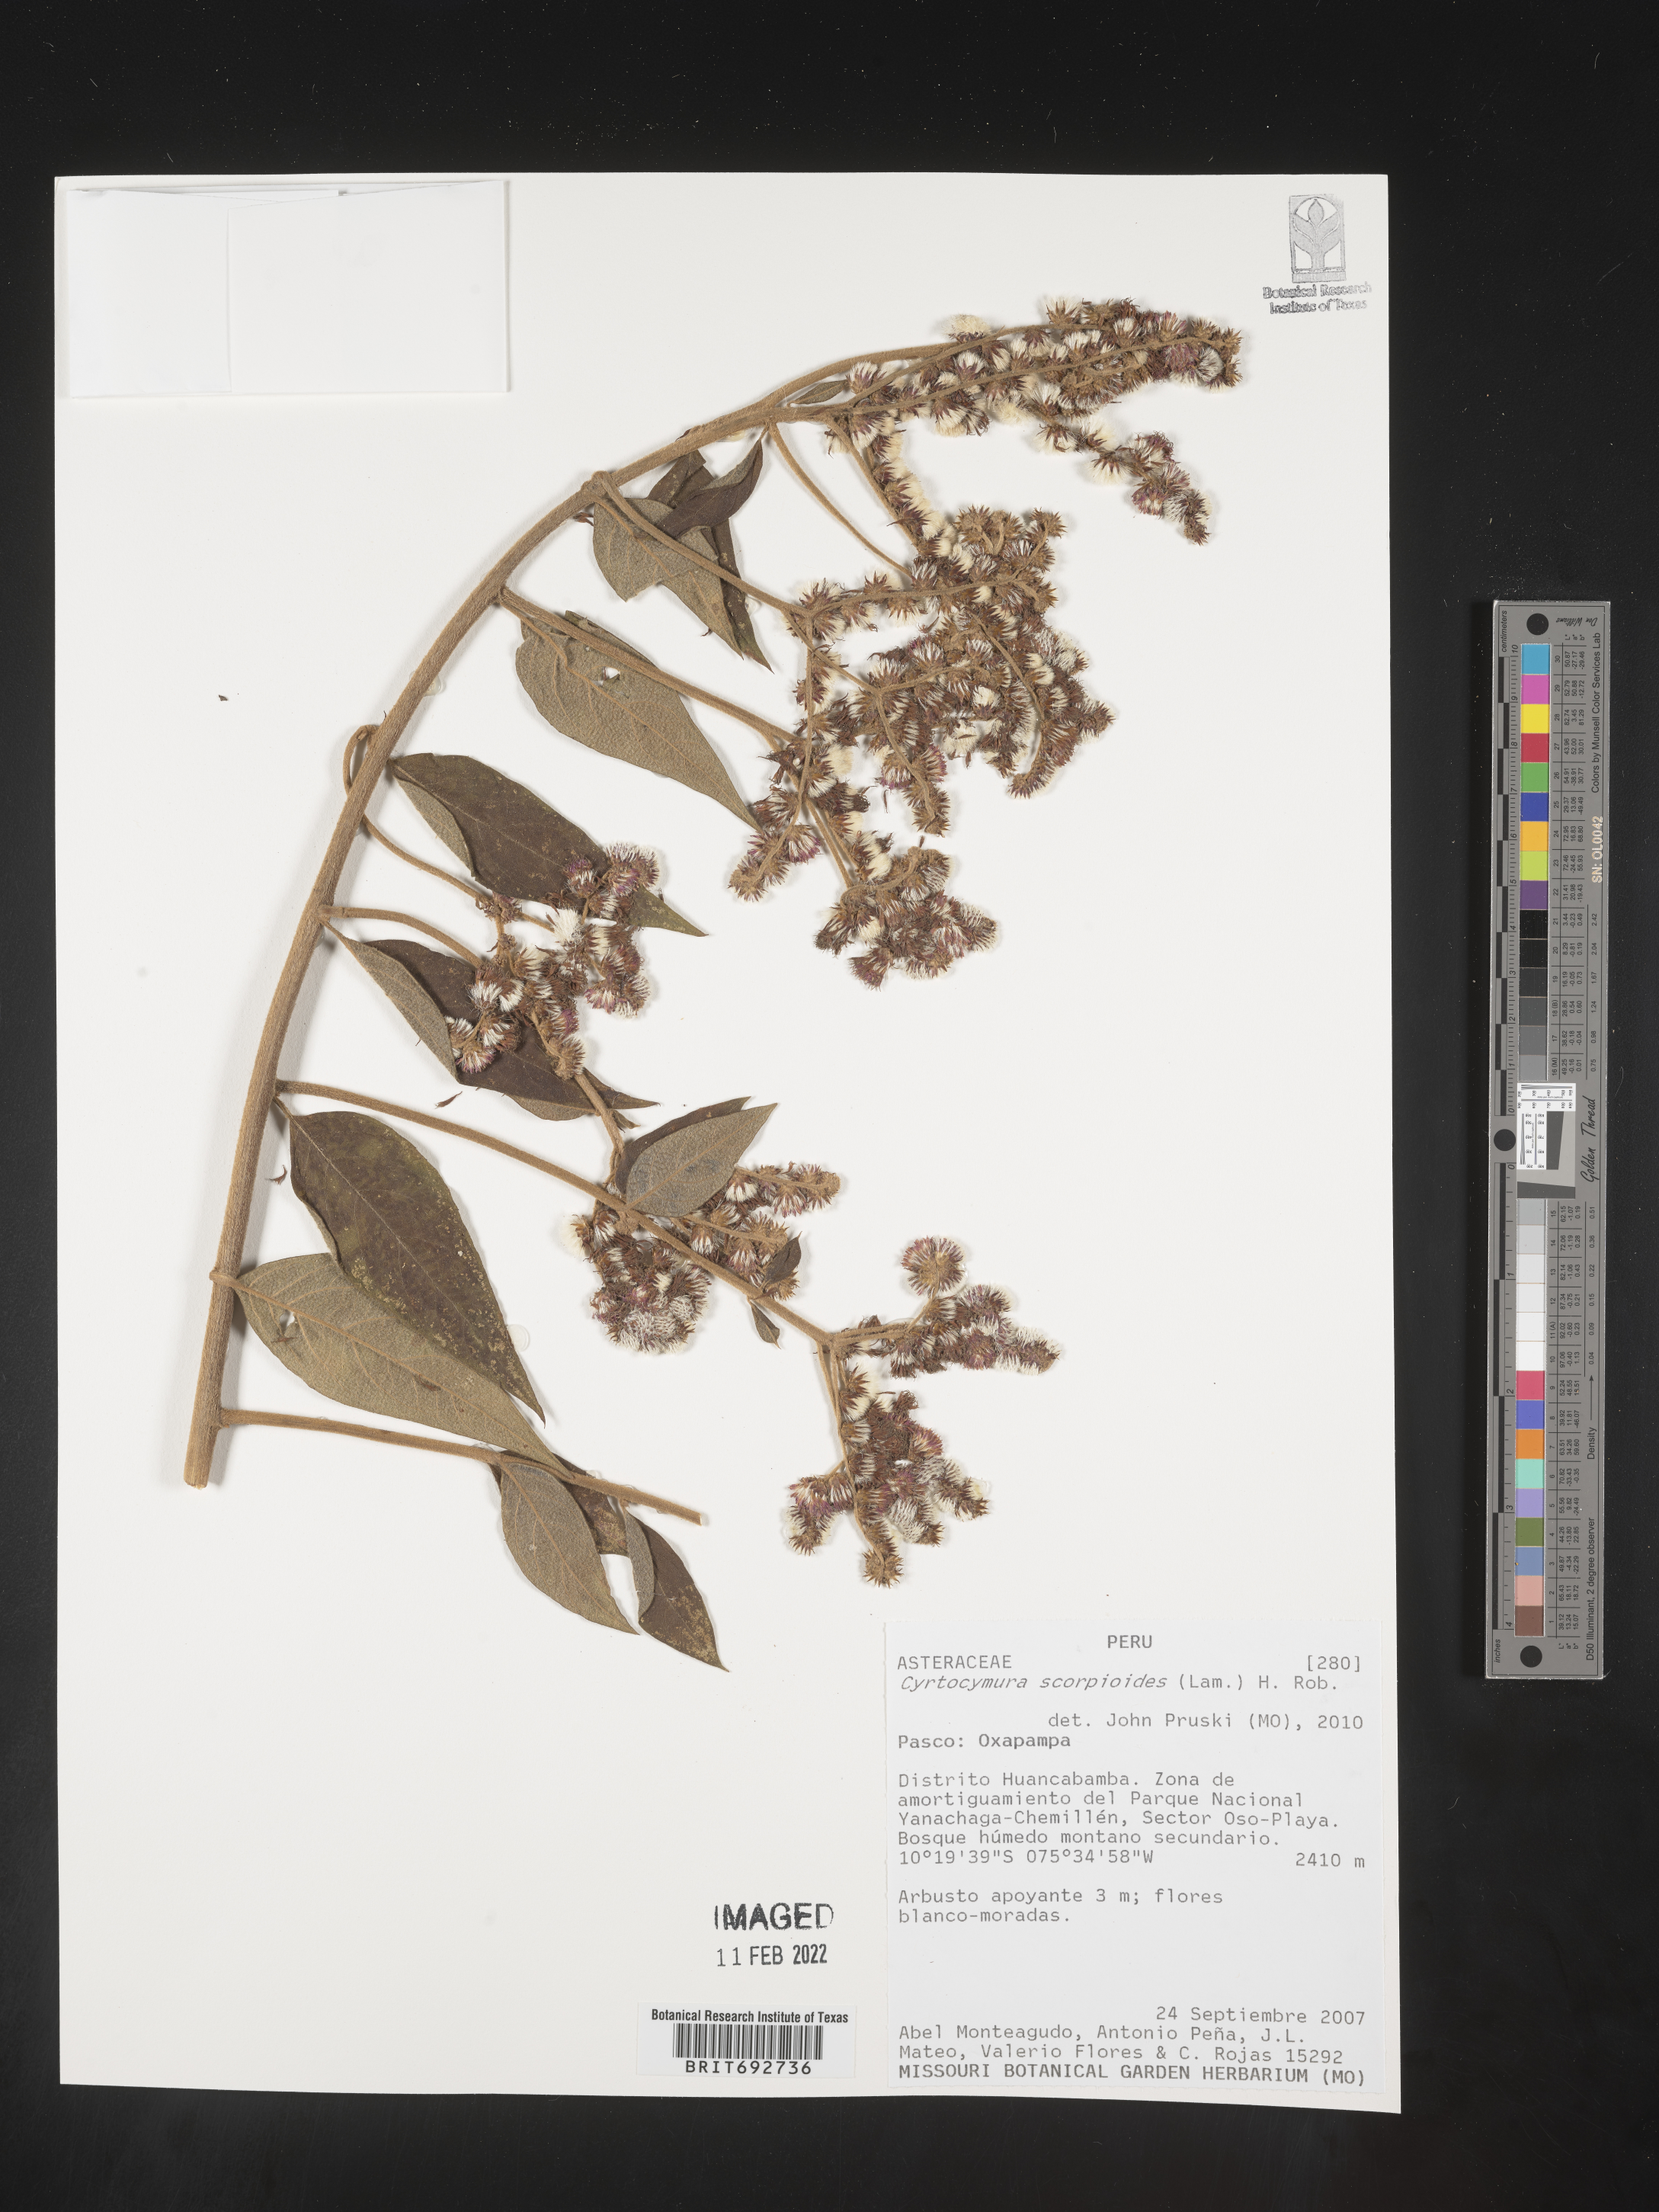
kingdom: Plantae
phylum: Tracheophyta
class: Magnoliopsida
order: Asterales
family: Asteraceae
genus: Cyrtocymura
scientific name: Cyrtocymura
